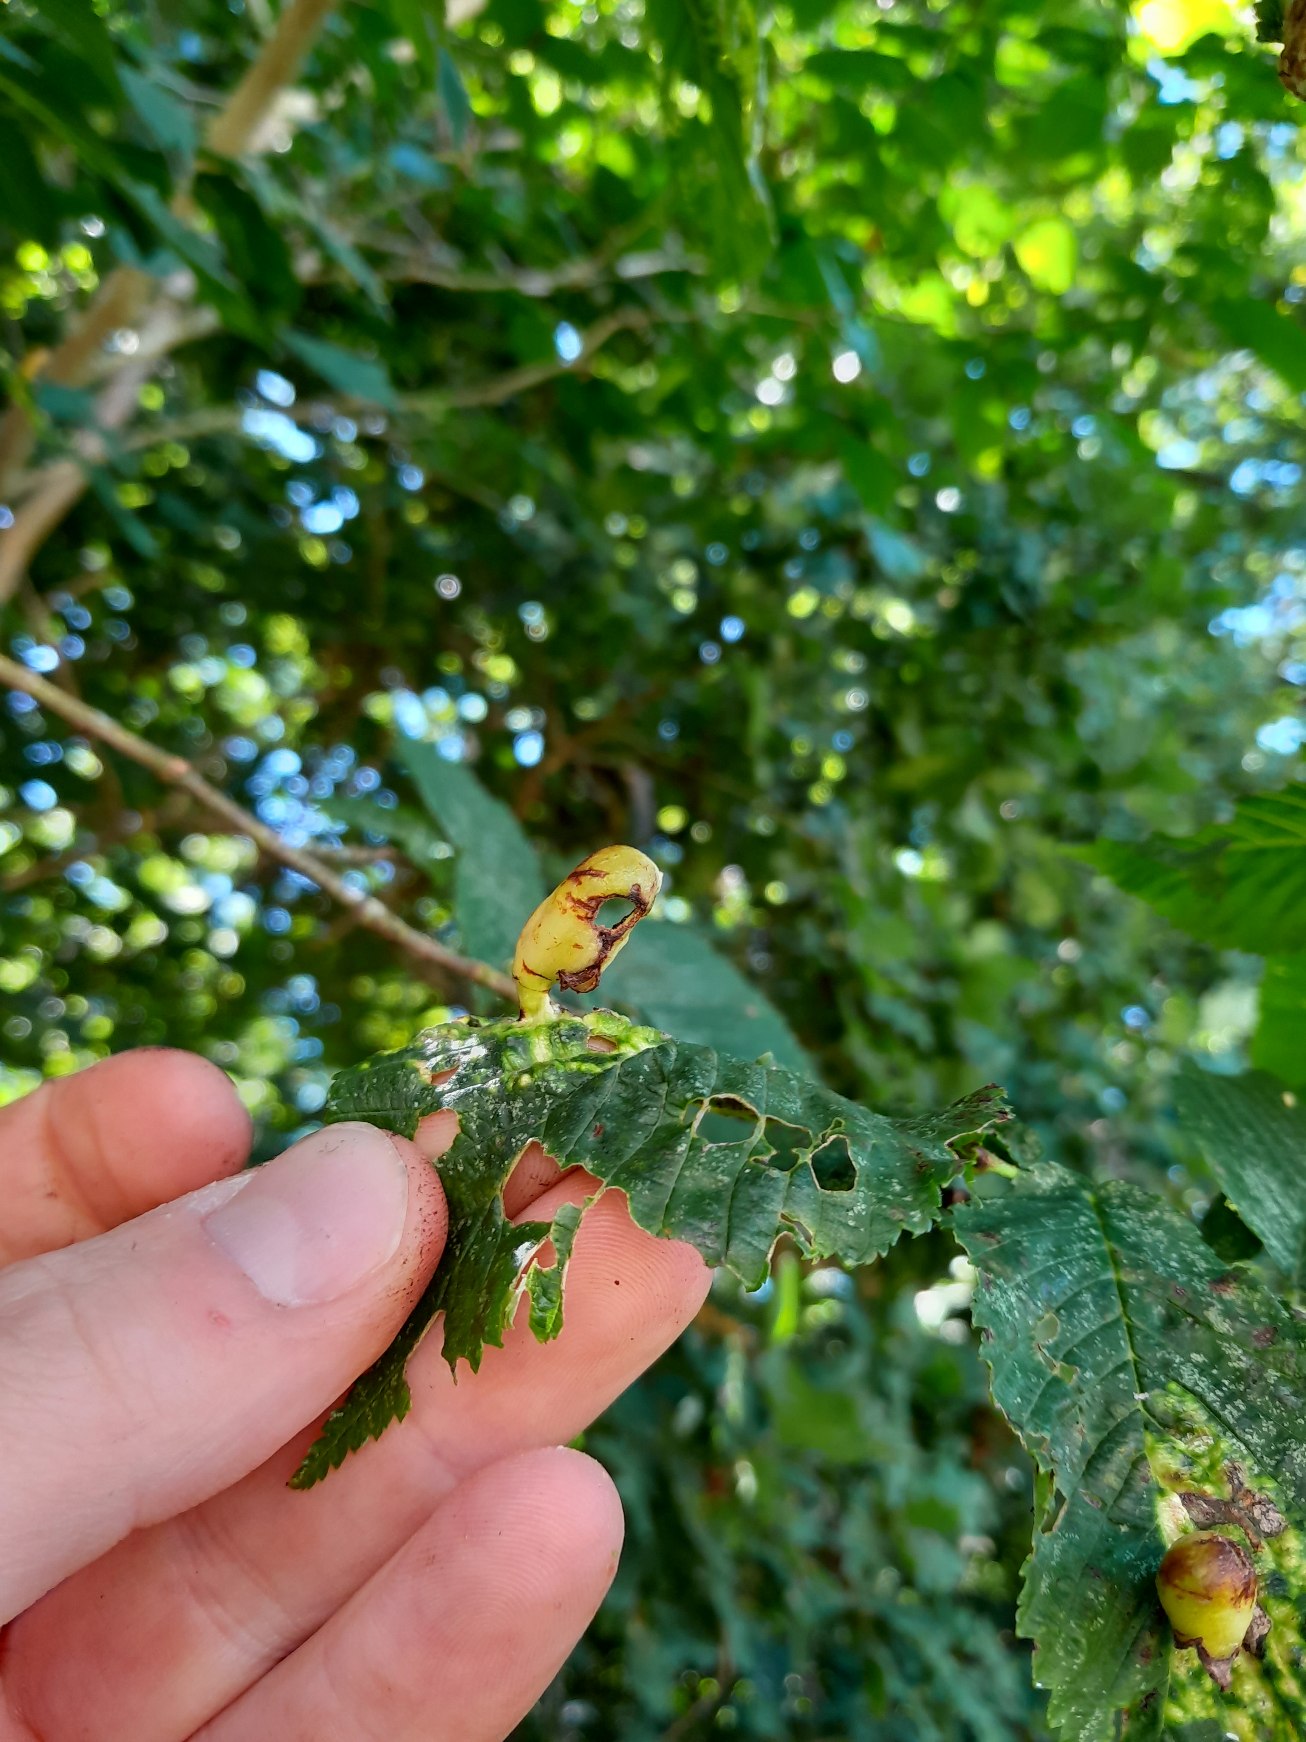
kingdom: Animalia
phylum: Arthropoda
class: Insecta
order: Hemiptera
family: Aphididae
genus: Tetraneura
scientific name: Tetraneura ulmi
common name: Elmegallelus
